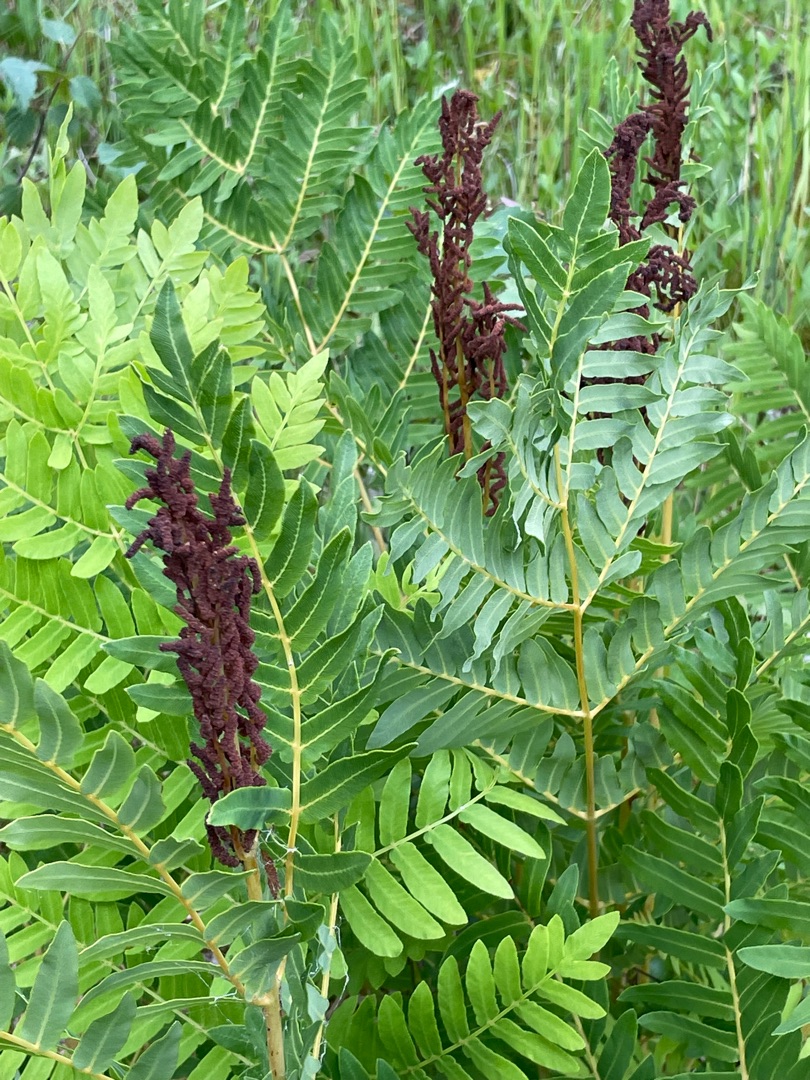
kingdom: Plantae
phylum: Tracheophyta
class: Polypodiopsida
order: Osmundales
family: Osmundaceae
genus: Osmunda
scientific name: Osmunda regalis
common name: Kongebregne
